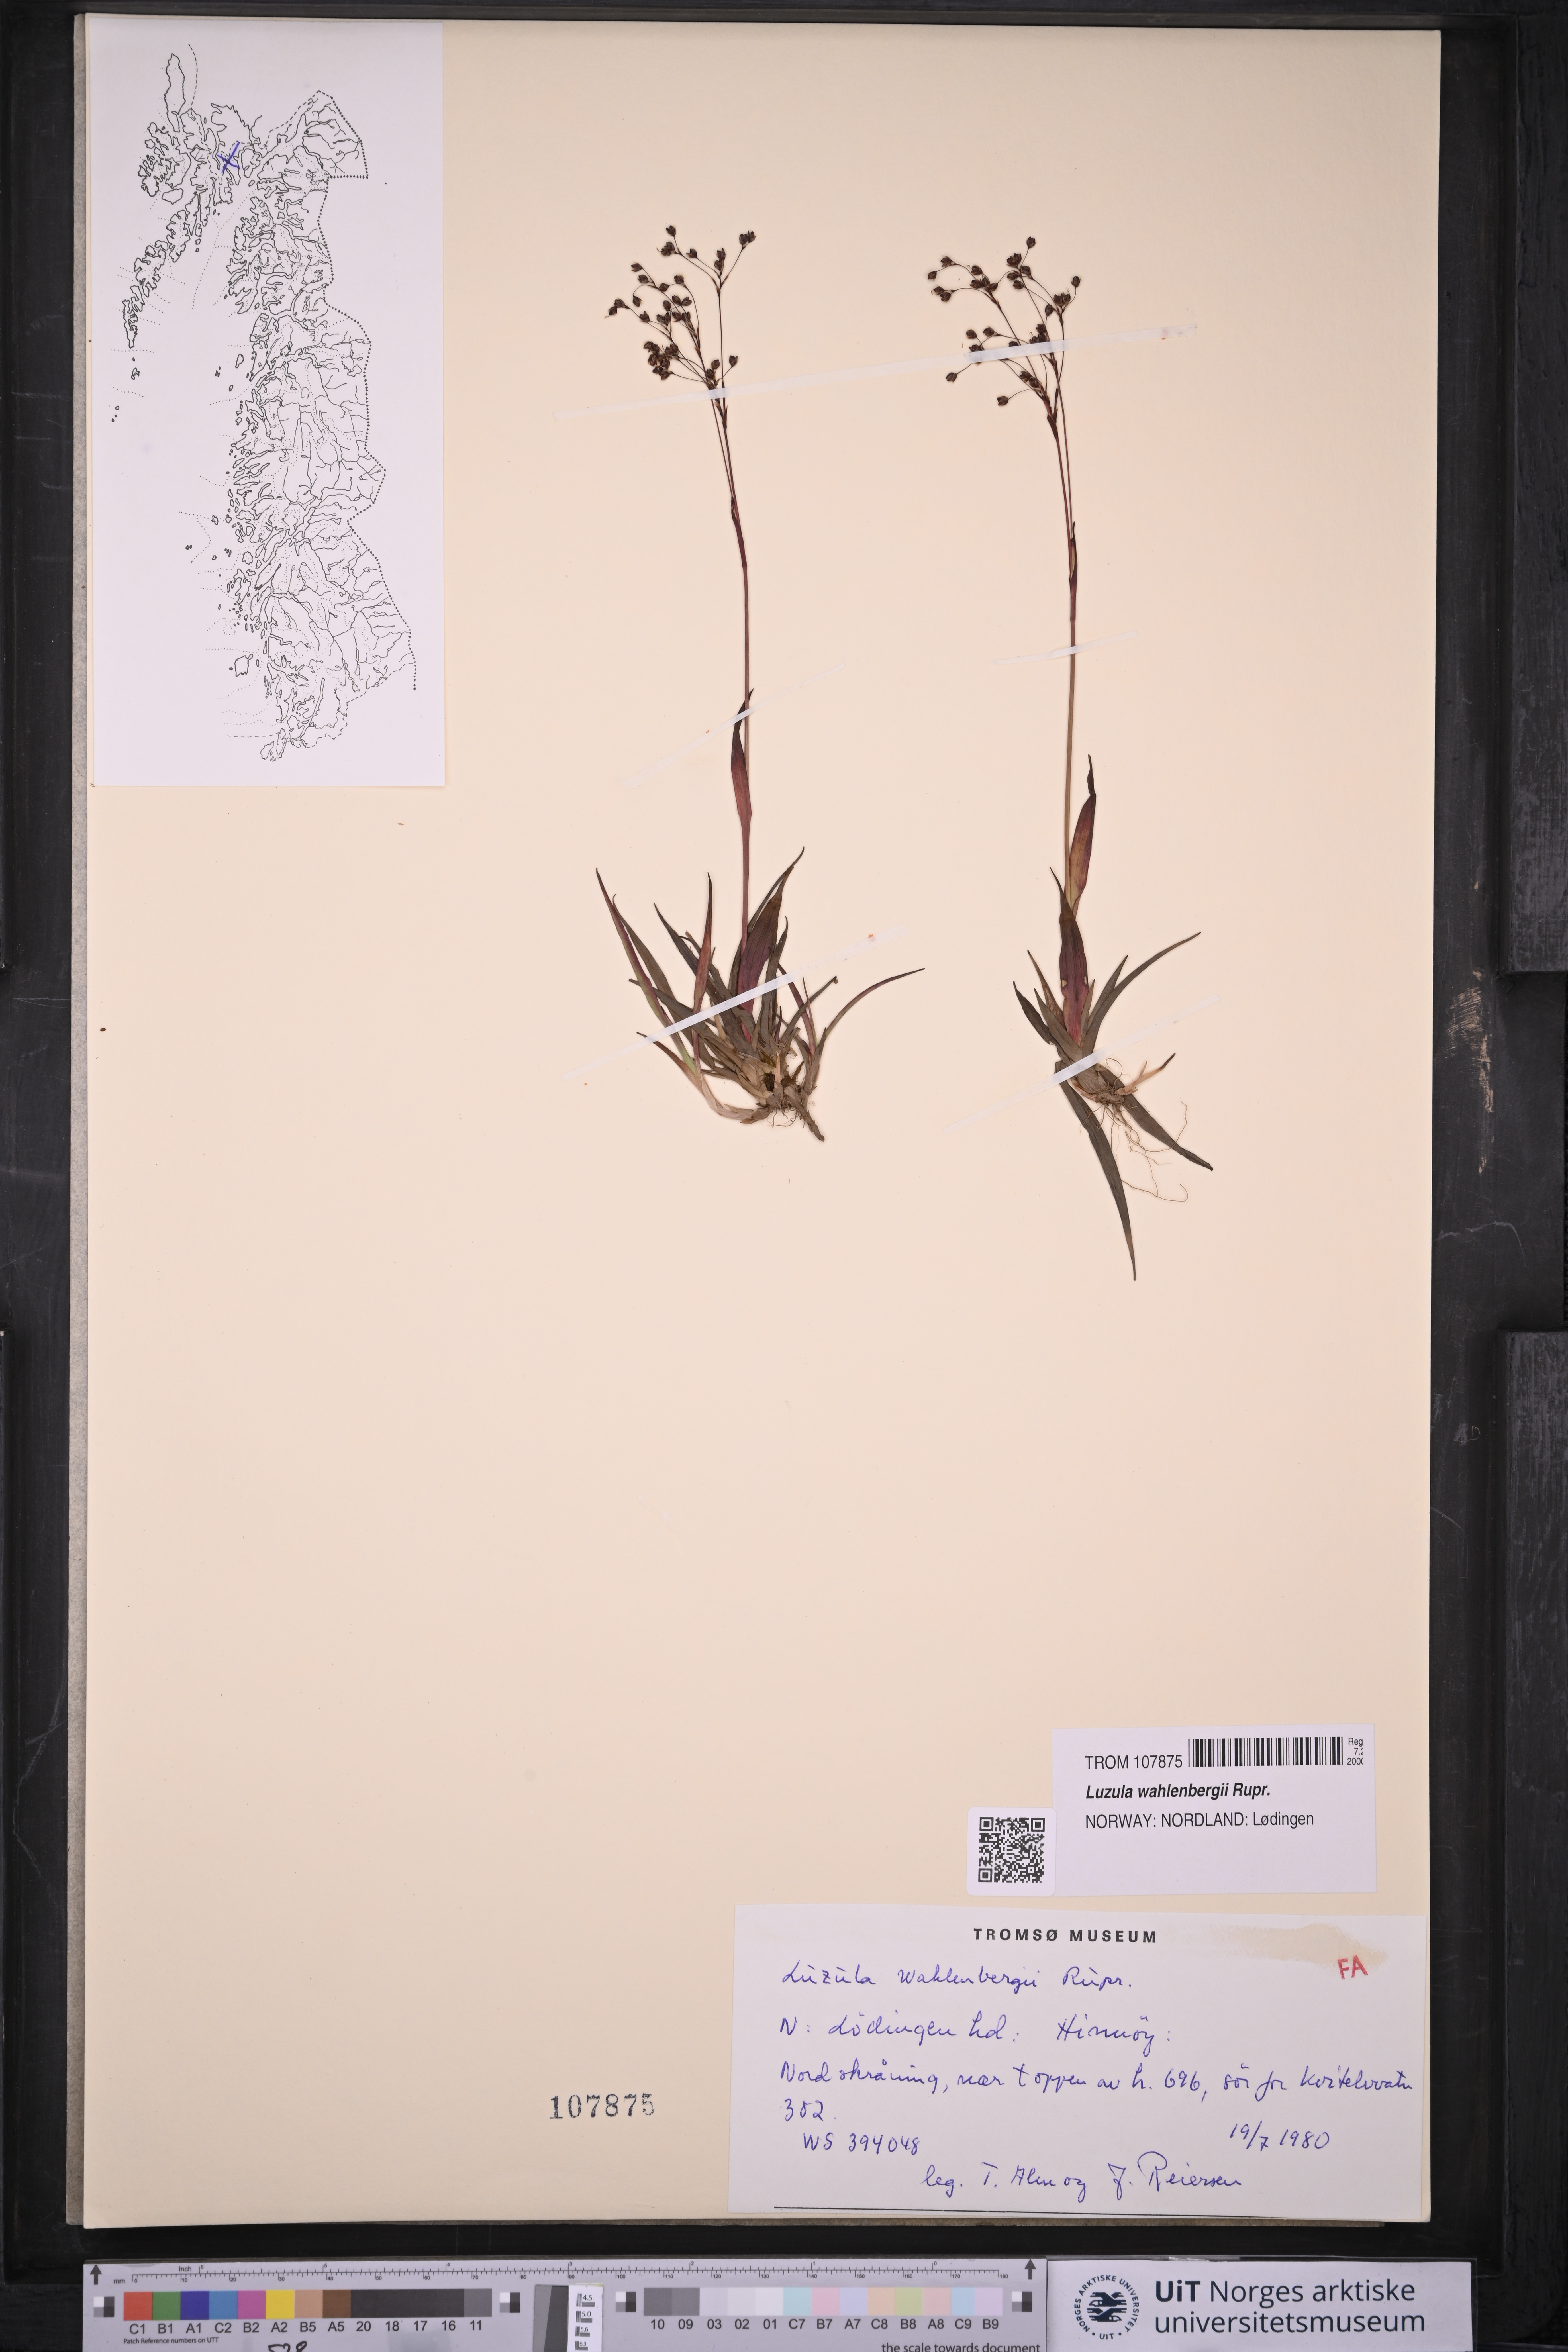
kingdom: Plantae
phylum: Tracheophyta
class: Liliopsida
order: Poales
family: Juncaceae
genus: Luzula
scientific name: Luzula wahlenbergii
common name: Wahlenberg's wood-rush
